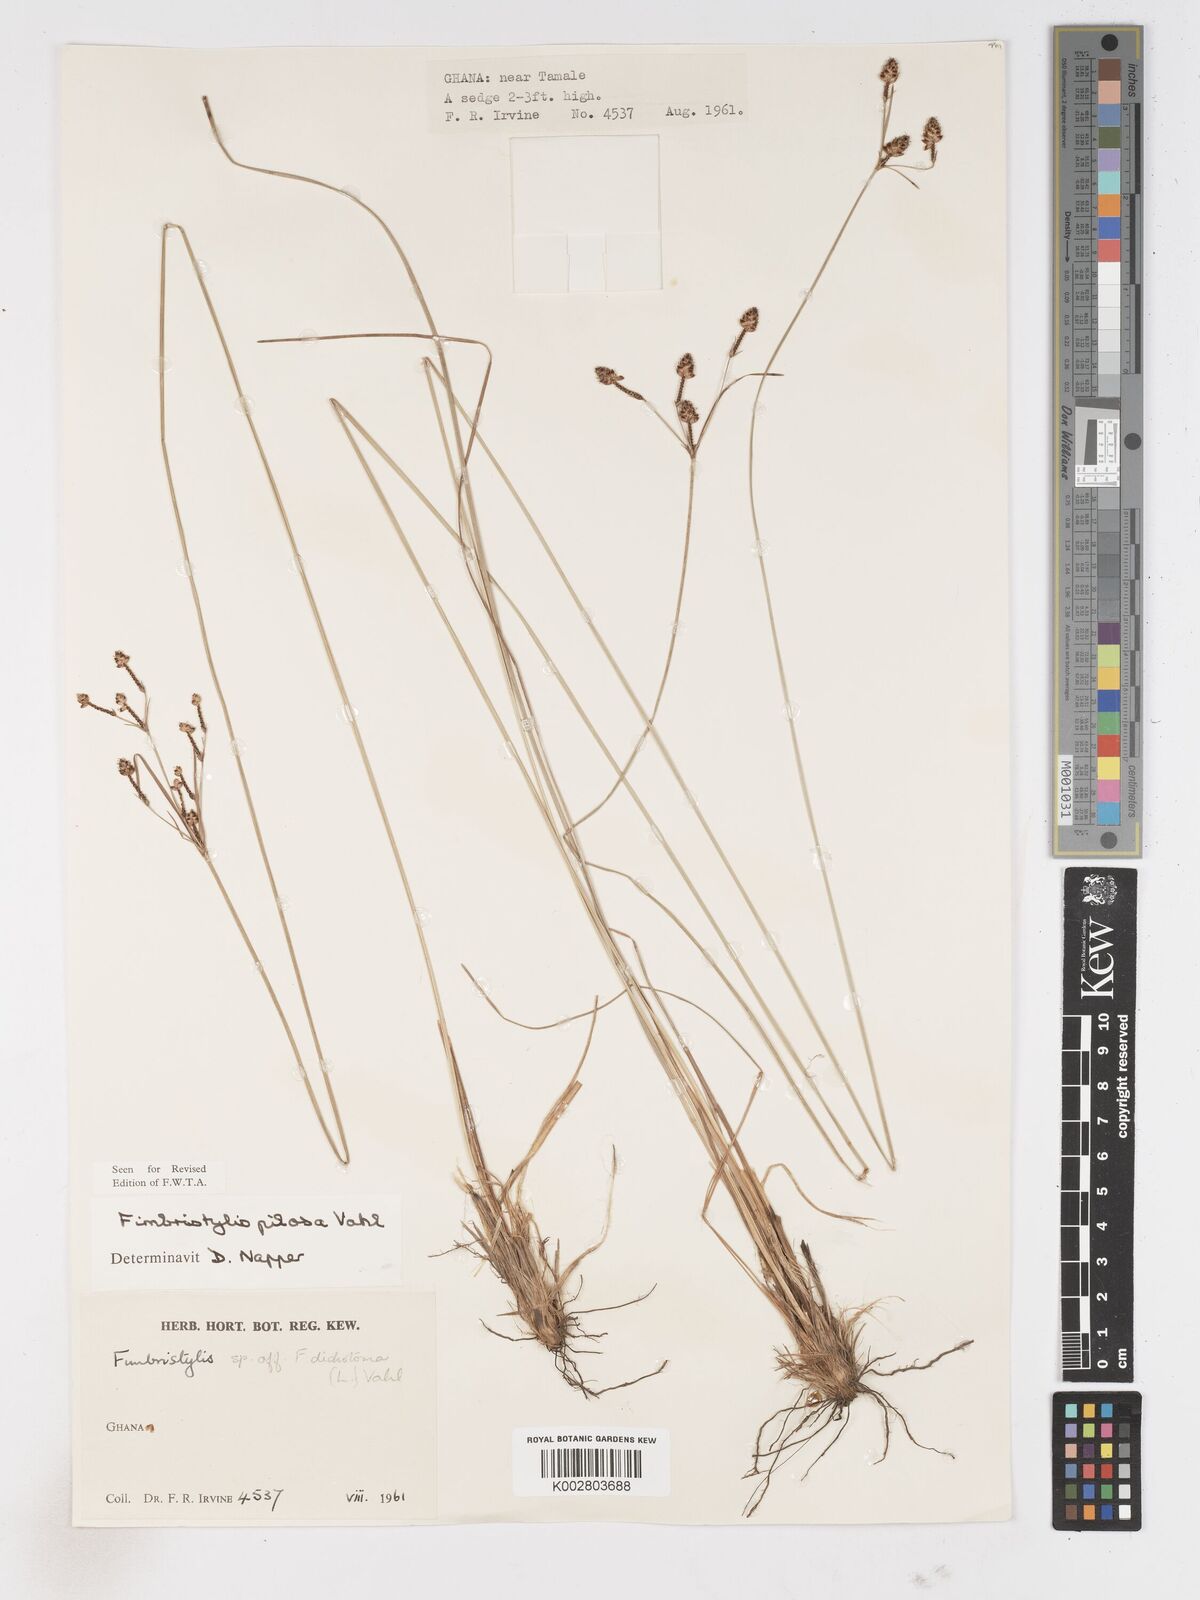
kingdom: Plantae
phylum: Tracheophyta
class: Liliopsida
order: Poales
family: Cyperaceae
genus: Fimbristylis
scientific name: Fimbristylis pilosa
